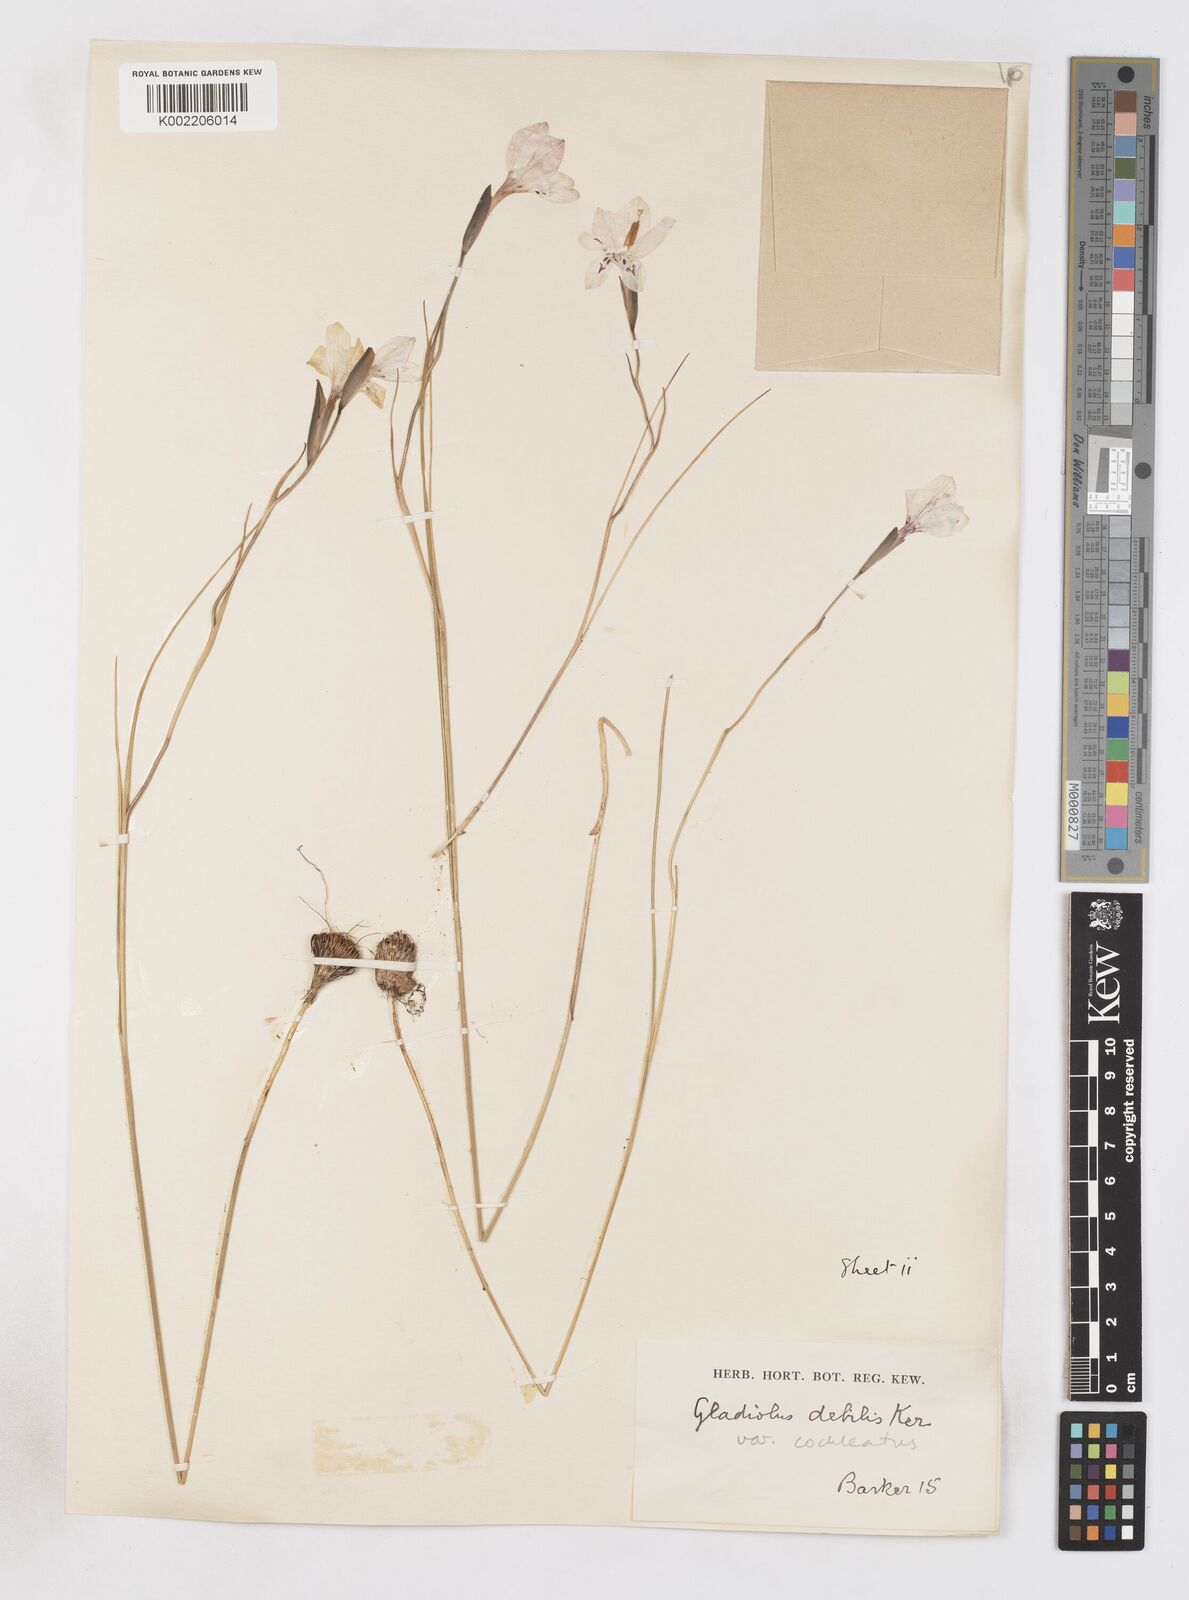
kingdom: Plantae
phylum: Tracheophyta
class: Liliopsida
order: Asparagales
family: Iridaceae
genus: Gladiolus
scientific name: Gladiolus debilis
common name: Painted-lady
